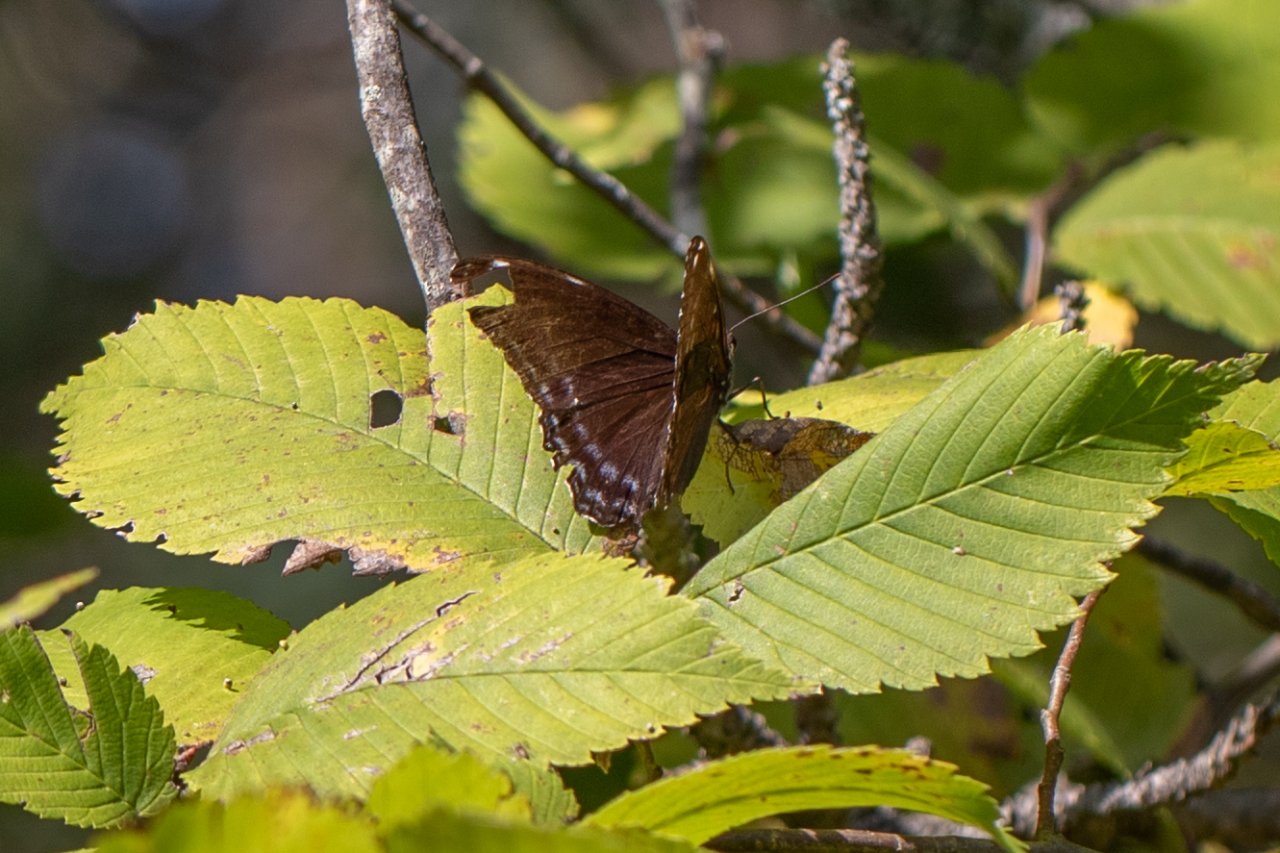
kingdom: Animalia
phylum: Arthropoda
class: Insecta
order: Lepidoptera
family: Nymphalidae
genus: Limenitis
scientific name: Limenitis arthemis
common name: Red-spotted Admiral
